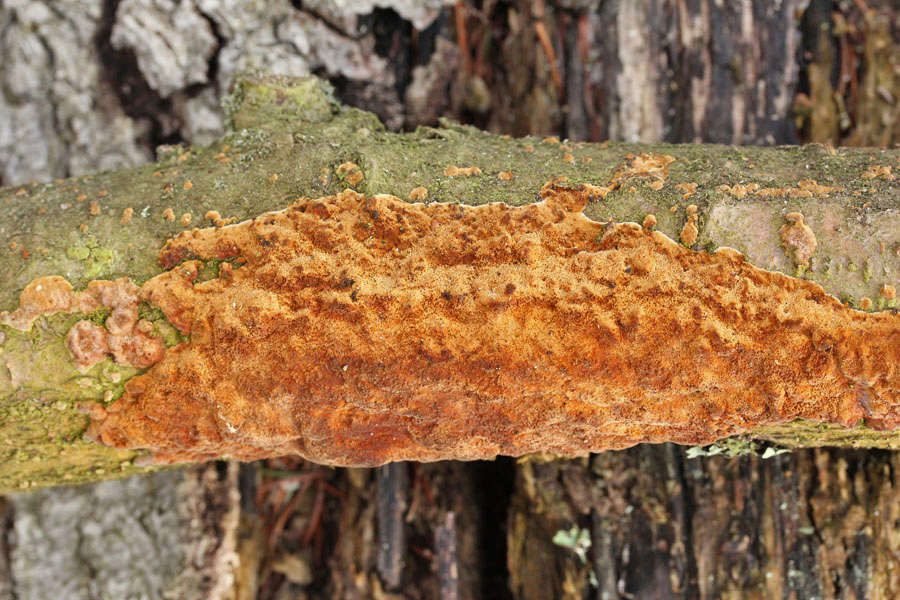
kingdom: Fungi
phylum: Basidiomycota
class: Agaricomycetes
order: Hymenochaetales
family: Hymenochaetaceae
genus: Fuscoporia
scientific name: Fuscoporia ferrea
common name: skorpe-ildporesvamp
